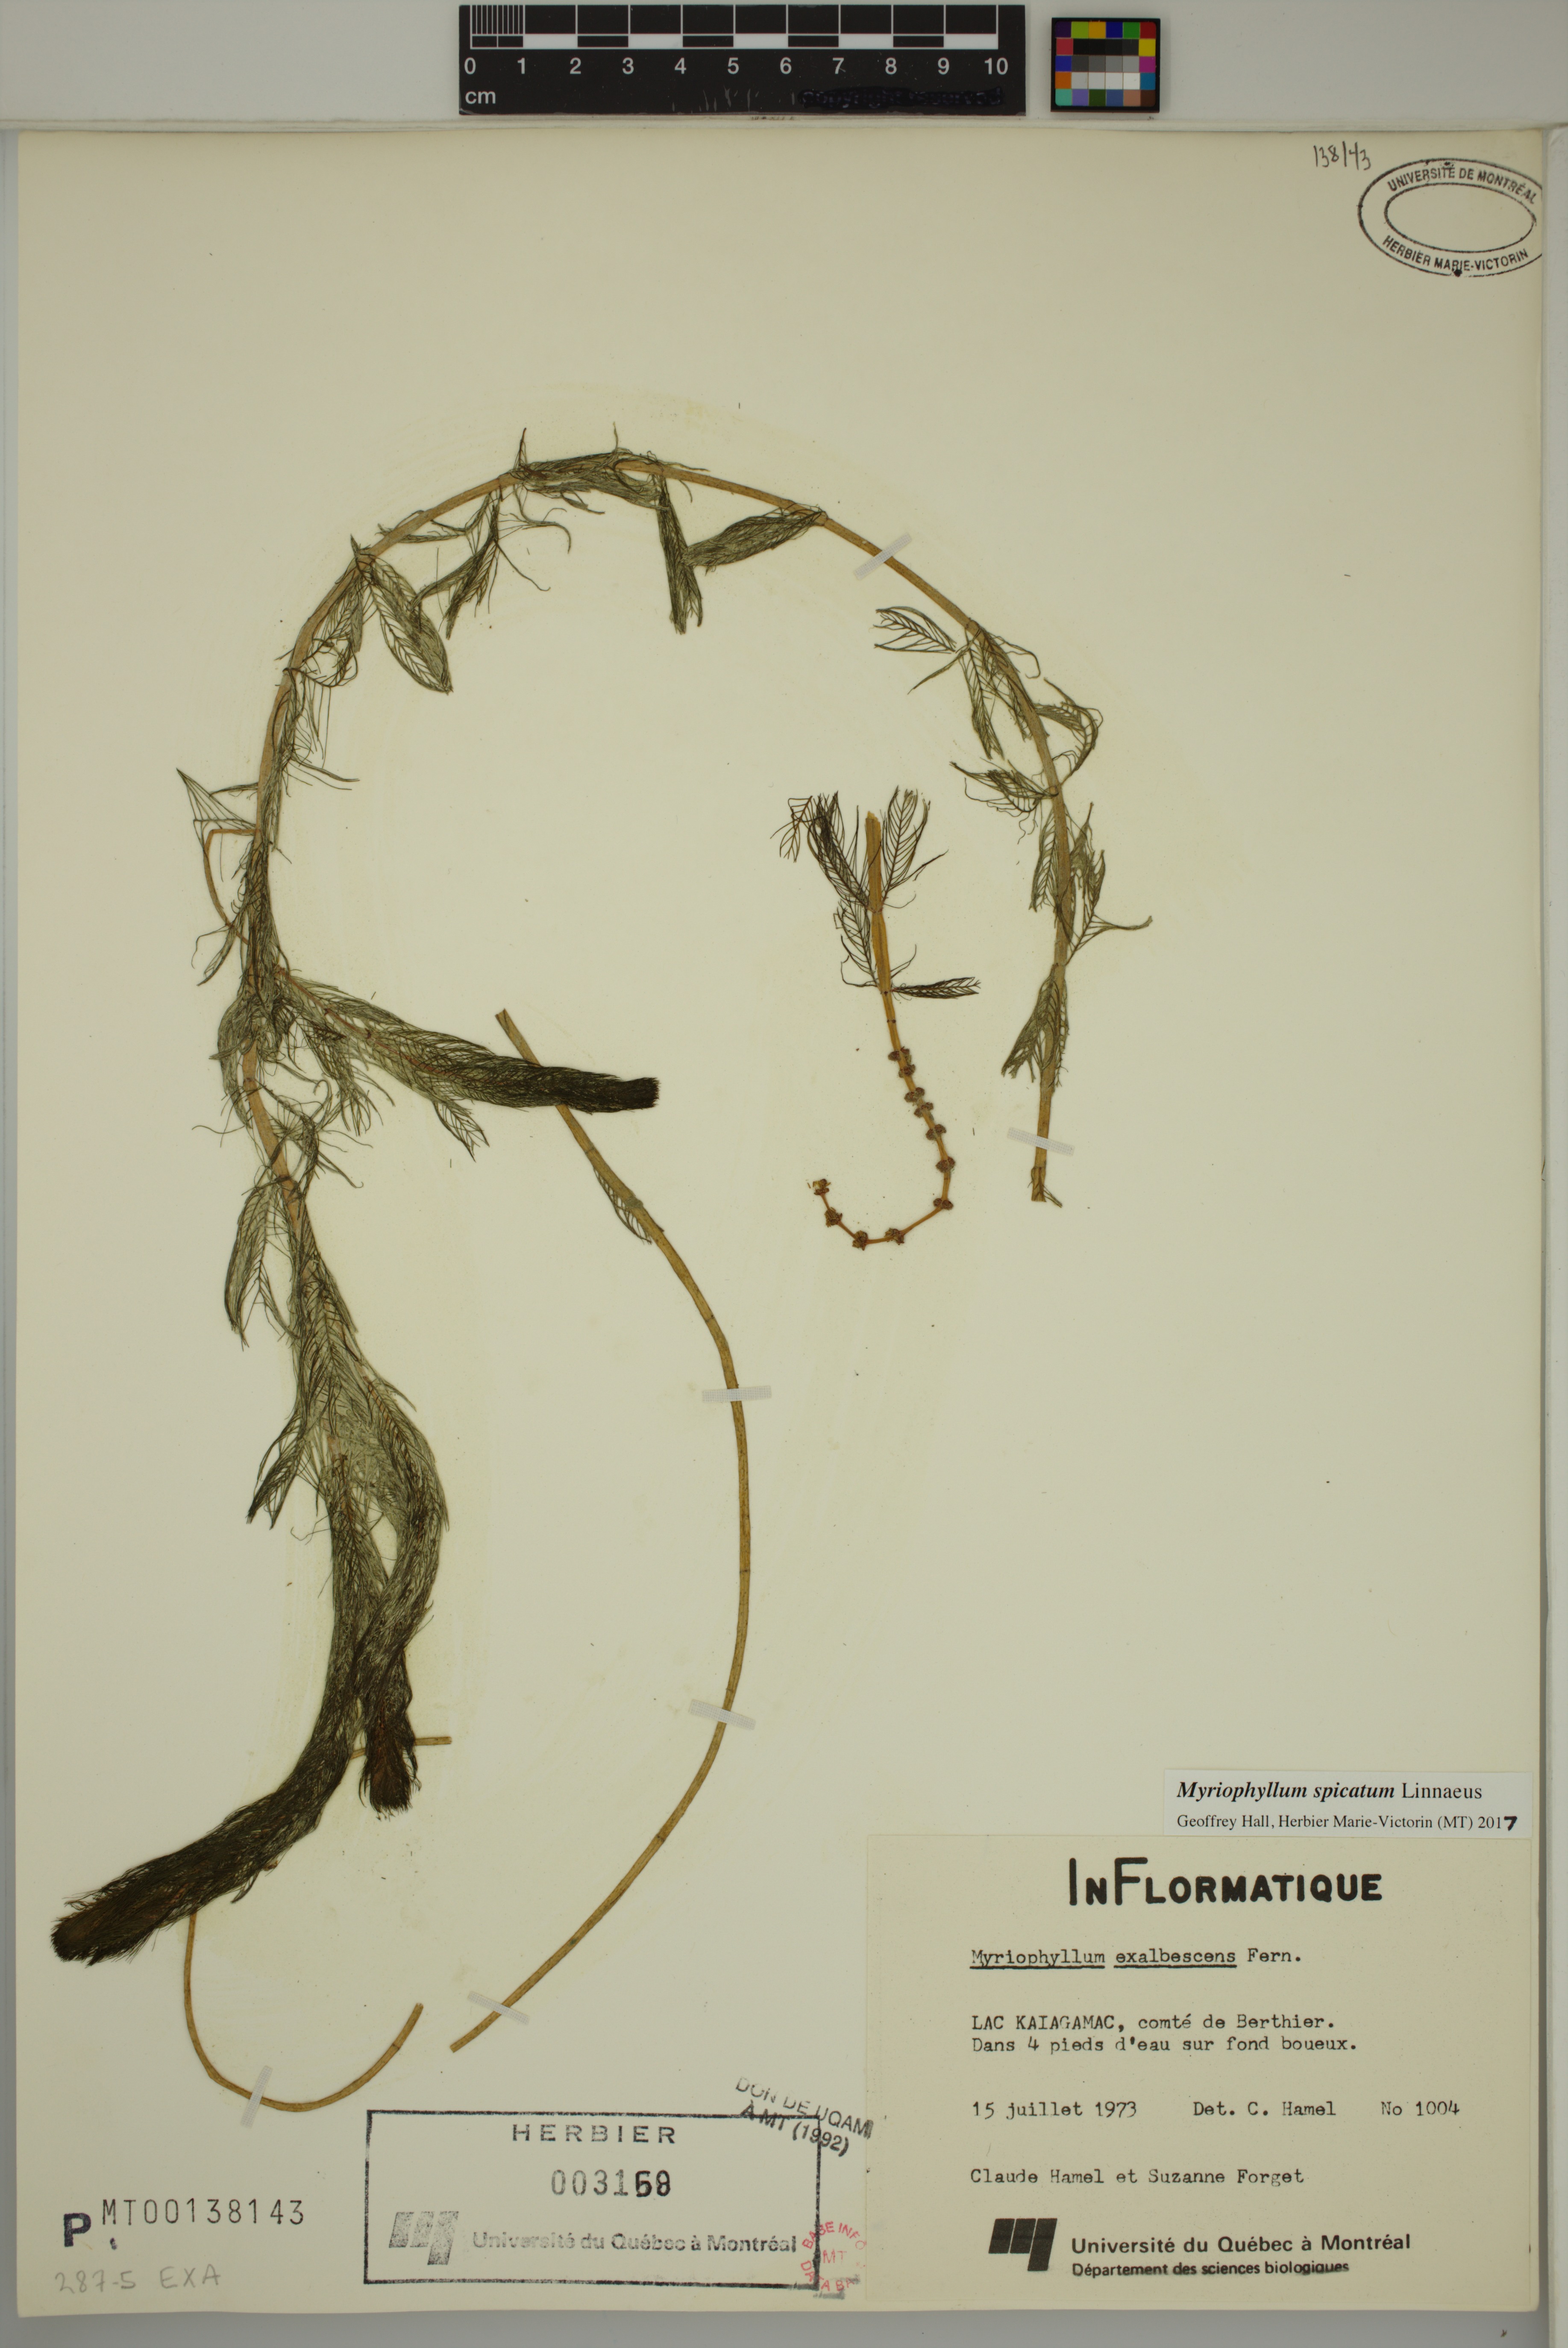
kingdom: Plantae
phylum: Tracheophyta
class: Magnoliopsida
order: Saxifragales
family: Haloragaceae
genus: Myriophyllum
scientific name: Myriophyllum spicatum
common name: Spiked water-milfoil
